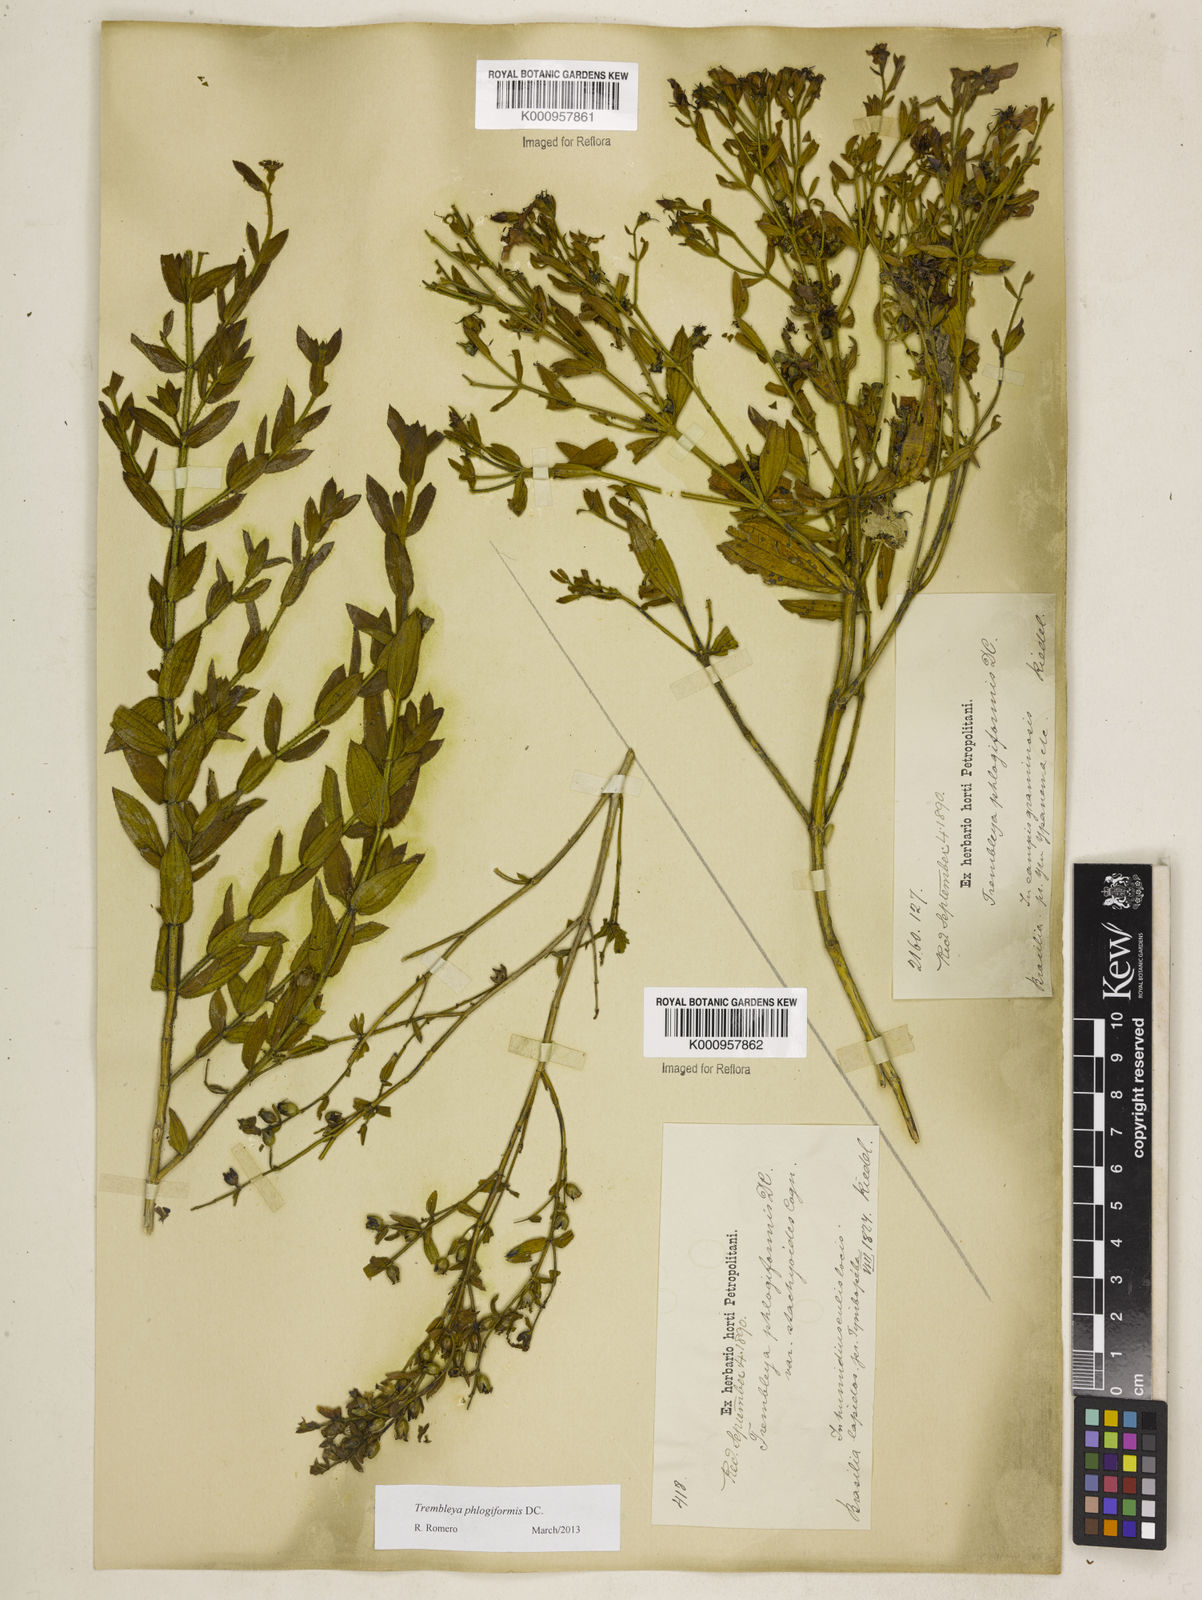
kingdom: Plantae
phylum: Tracheophyta
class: Magnoliopsida
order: Myrtales
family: Melastomataceae
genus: Microlicia
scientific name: Microlicia phlogiformis
